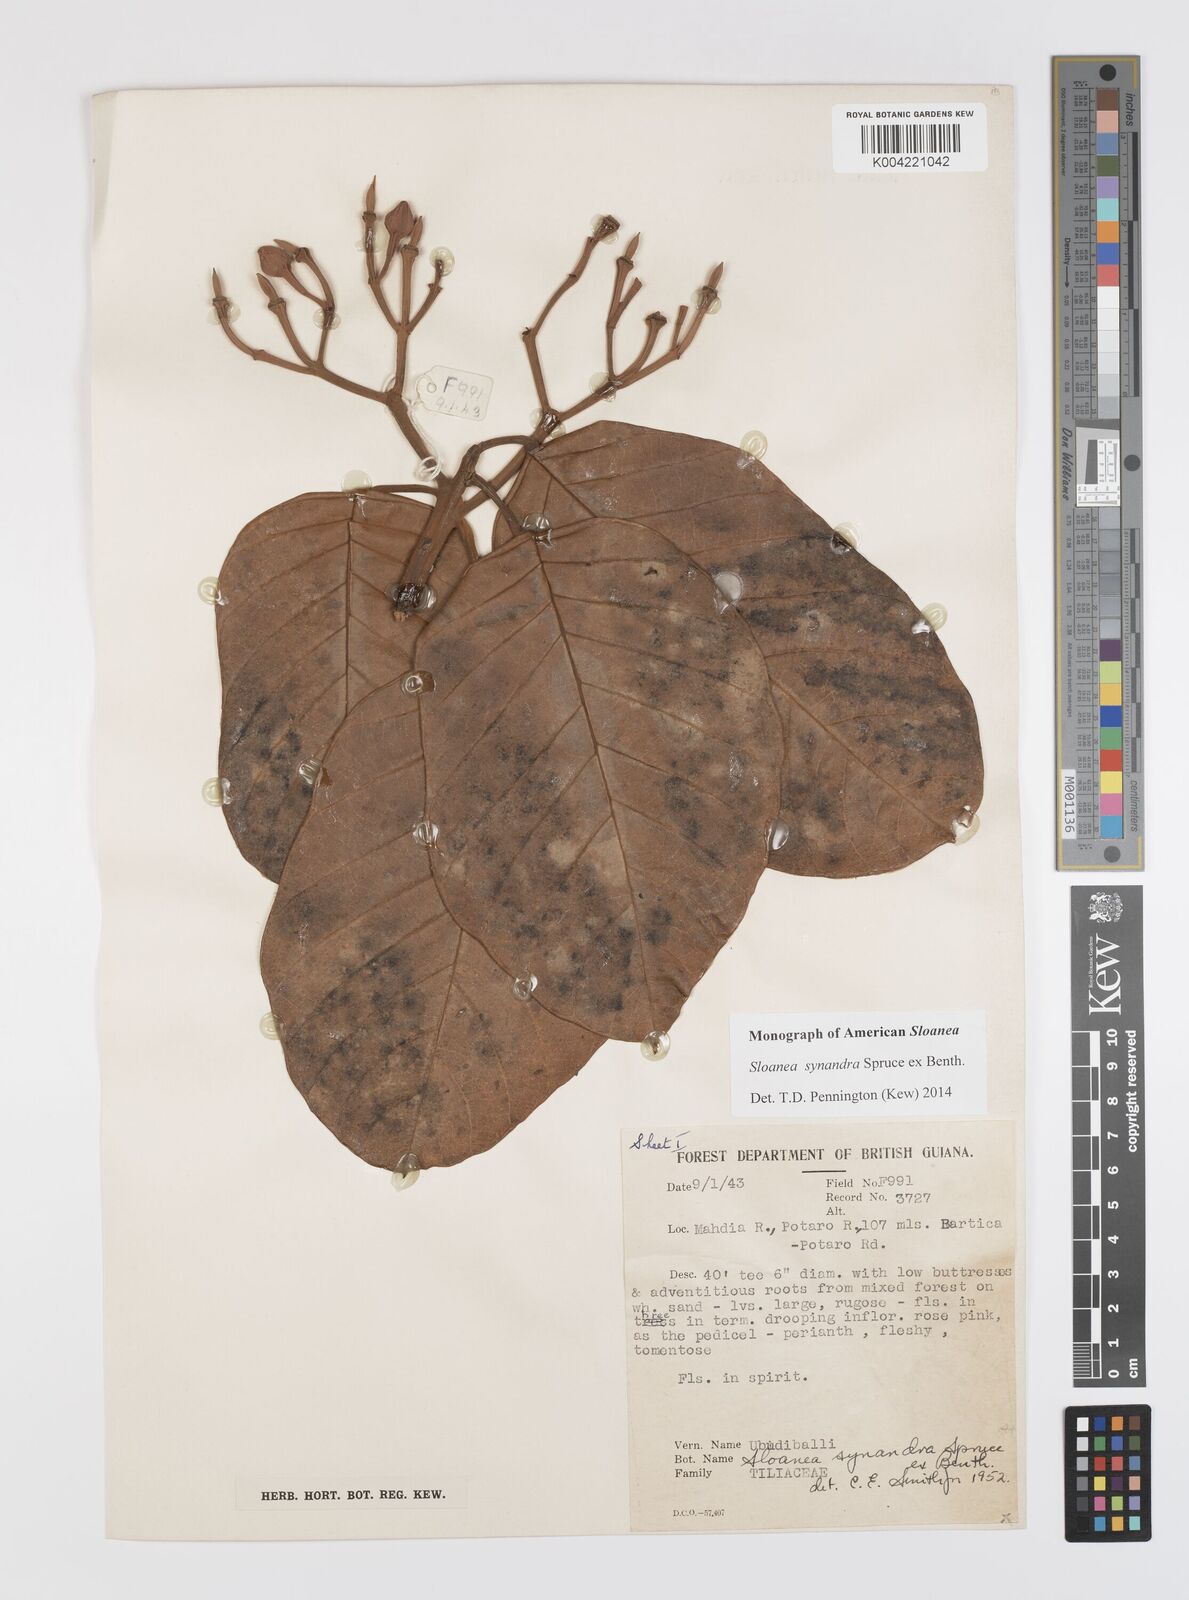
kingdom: Plantae
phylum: Tracheophyta
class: Magnoliopsida
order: Oxalidales
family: Elaeocarpaceae
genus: Sloanea
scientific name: Sloanea synandra
